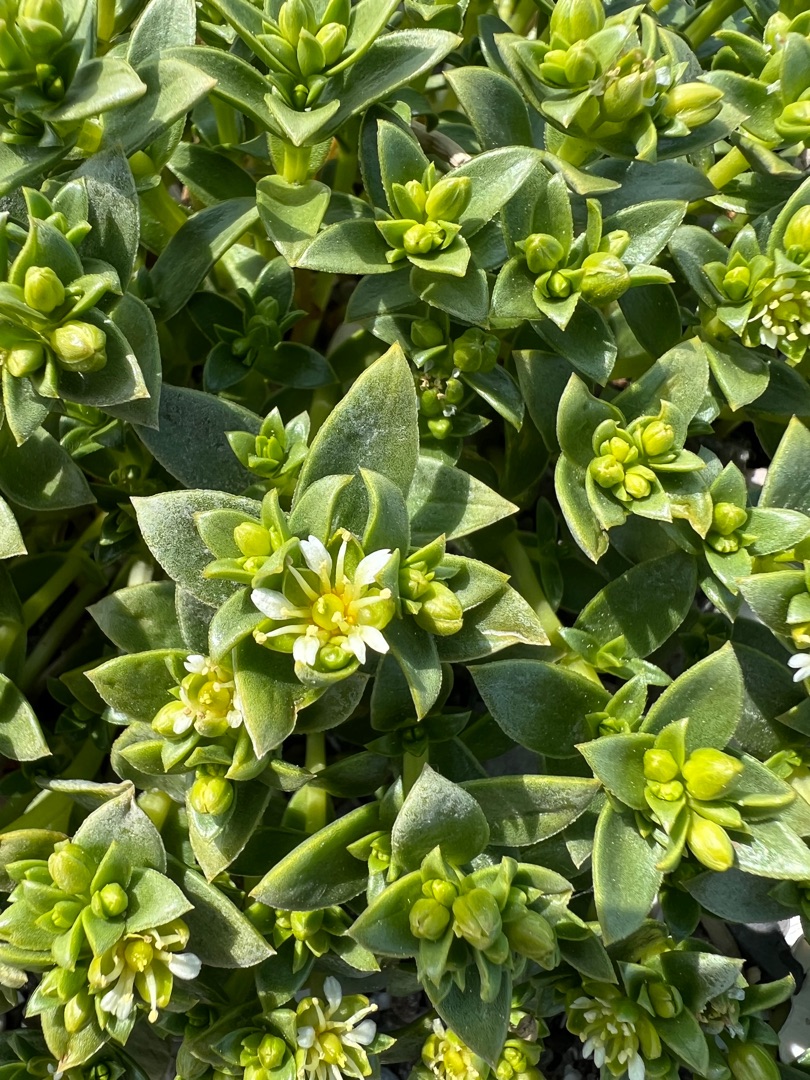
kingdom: Plantae
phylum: Tracheophyta
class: Magnoliopsida
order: Caryophyllales
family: Caryophyllaceae
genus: Honckenya
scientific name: Honckenya peploides
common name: Strandarve
